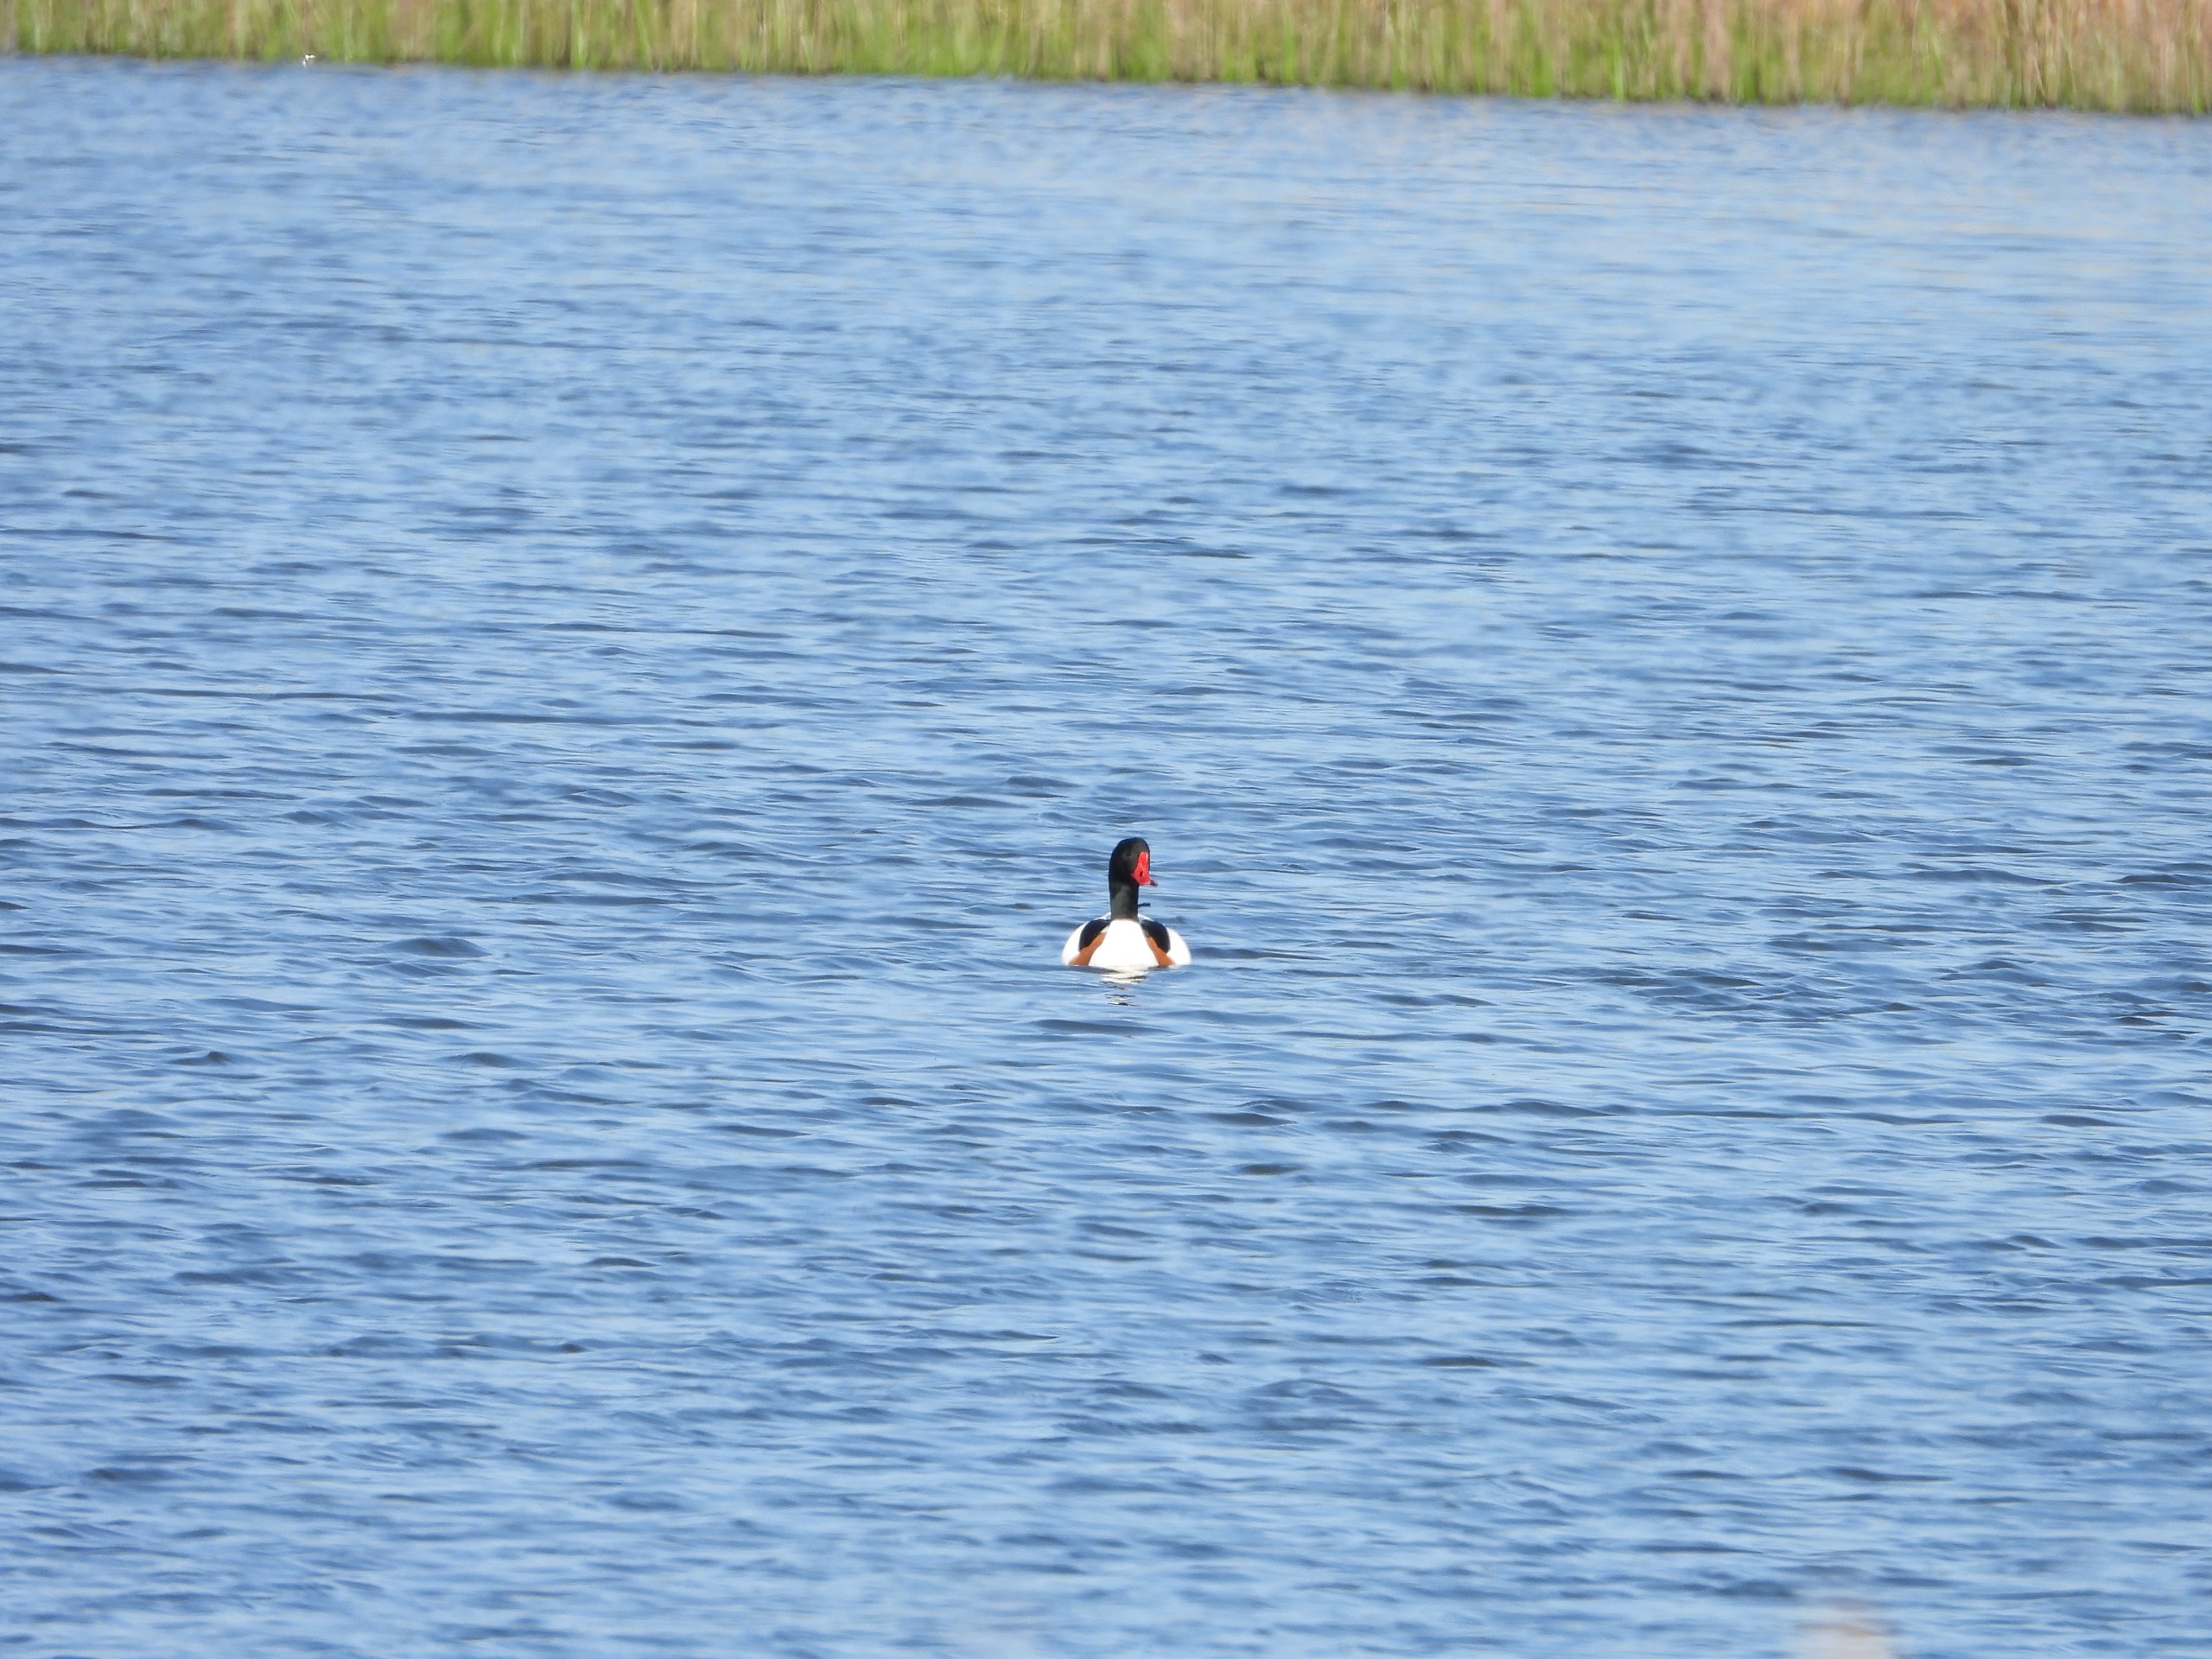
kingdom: Animalia
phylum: Chordata
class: Aves
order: Anseriformes
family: Anatidae
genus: Tadorna
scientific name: Tadorna tadorna
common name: Gravand
